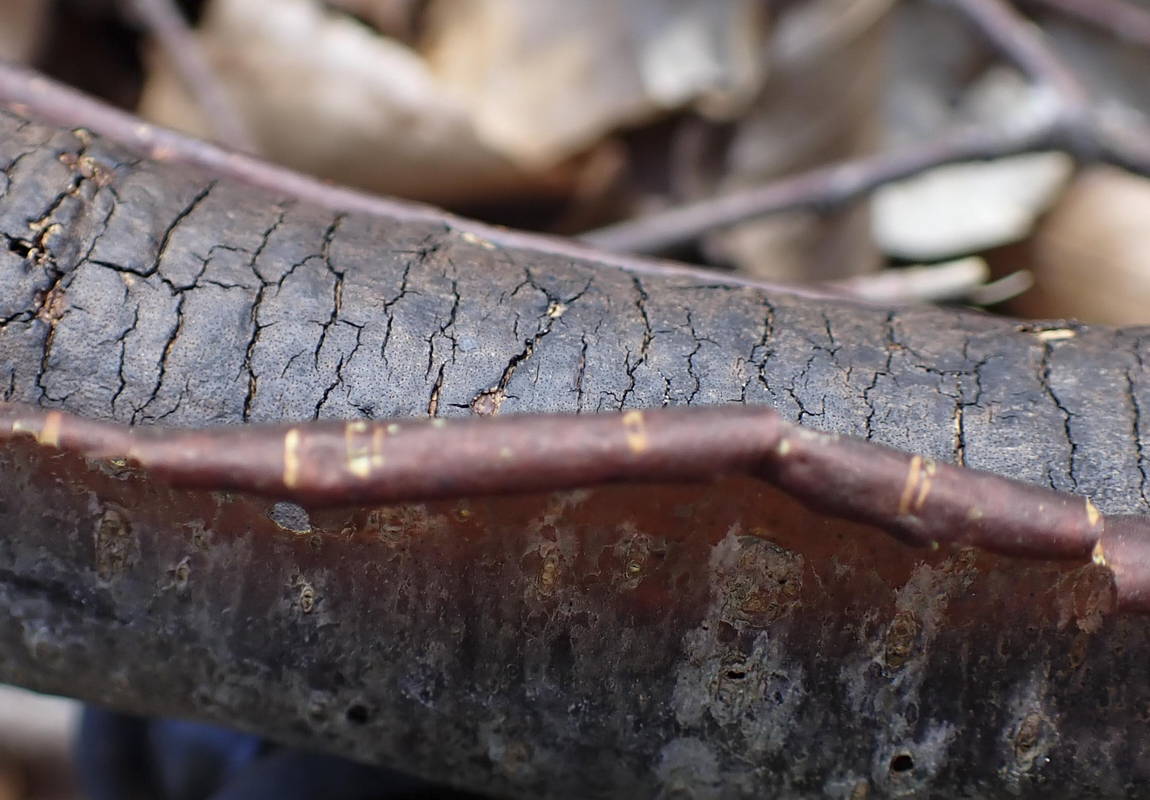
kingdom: Fungi
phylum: Ascomycota
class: Sordariomycetes
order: Xylariales
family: Diatrypaceae
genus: Diatrype
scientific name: Diatrype decorticata
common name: barksprænger-kulskorpe
